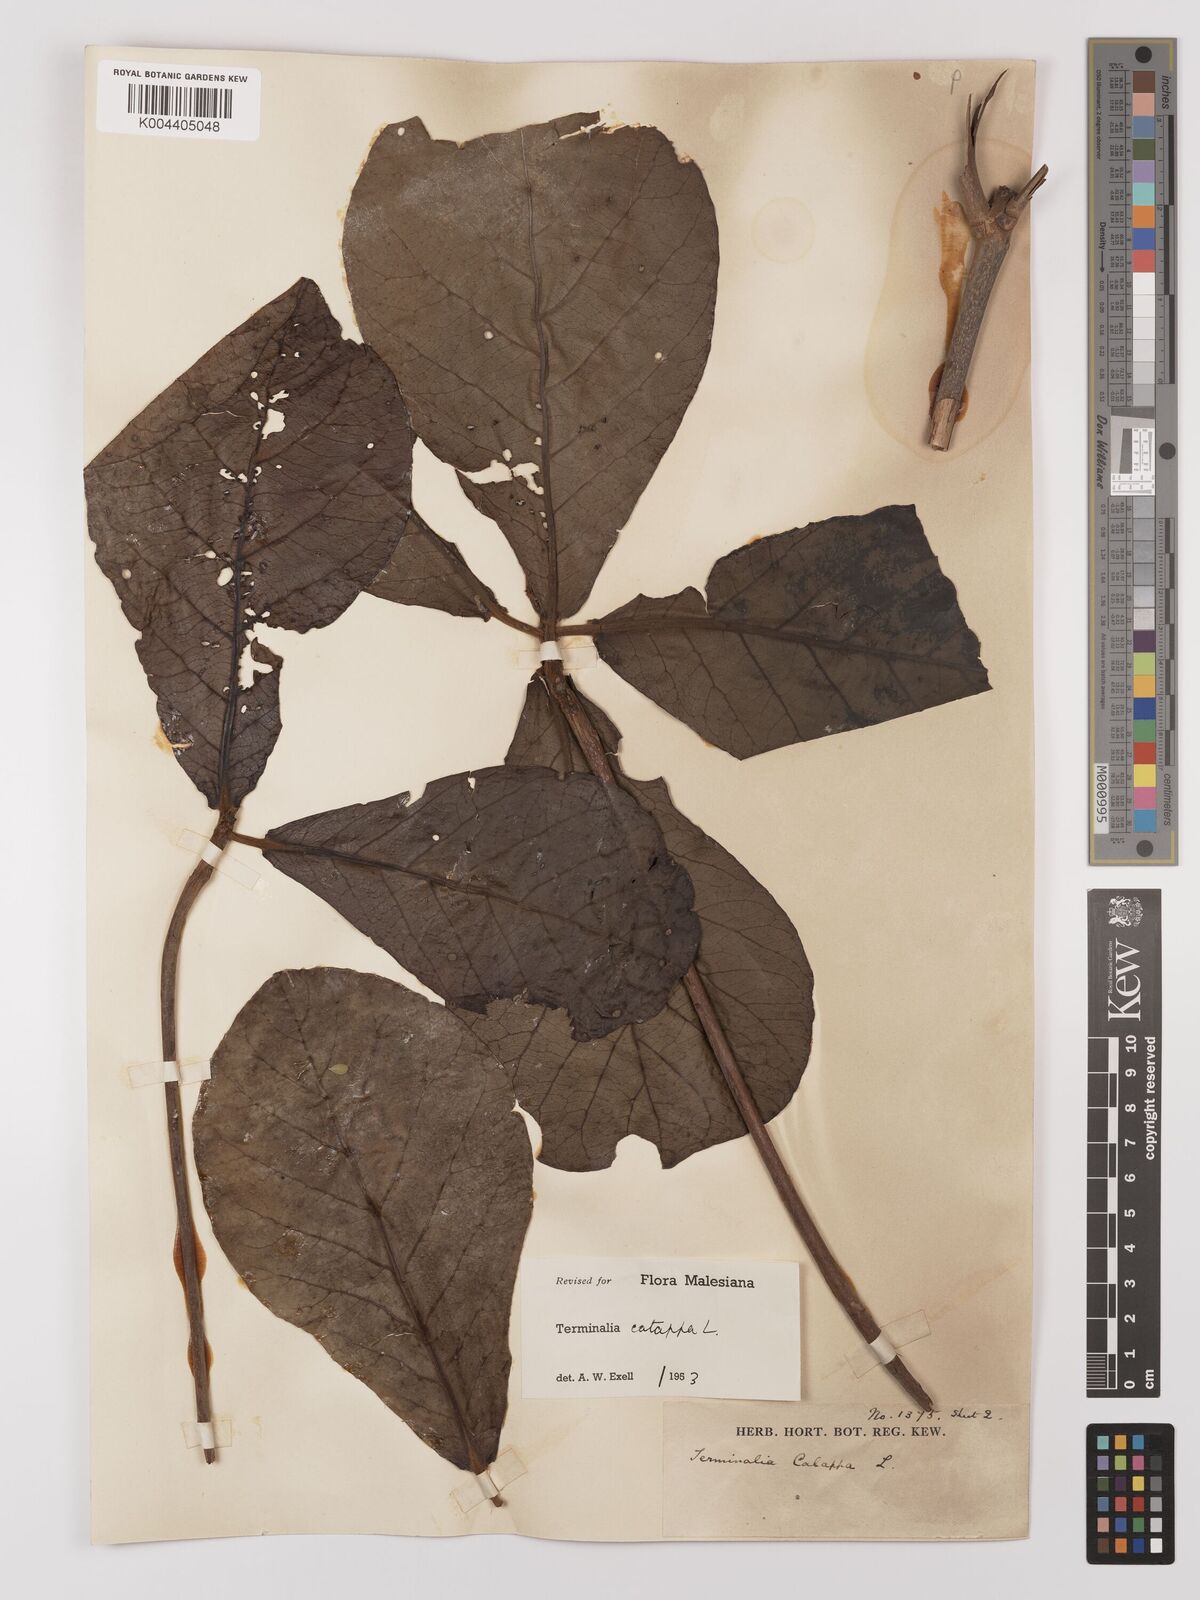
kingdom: Plantae
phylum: Tracheophyta
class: Magnoliopsida
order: Myrtales
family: Combretaceae
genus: Terminalia
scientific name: Terminalia catappa
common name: Tropical almond
